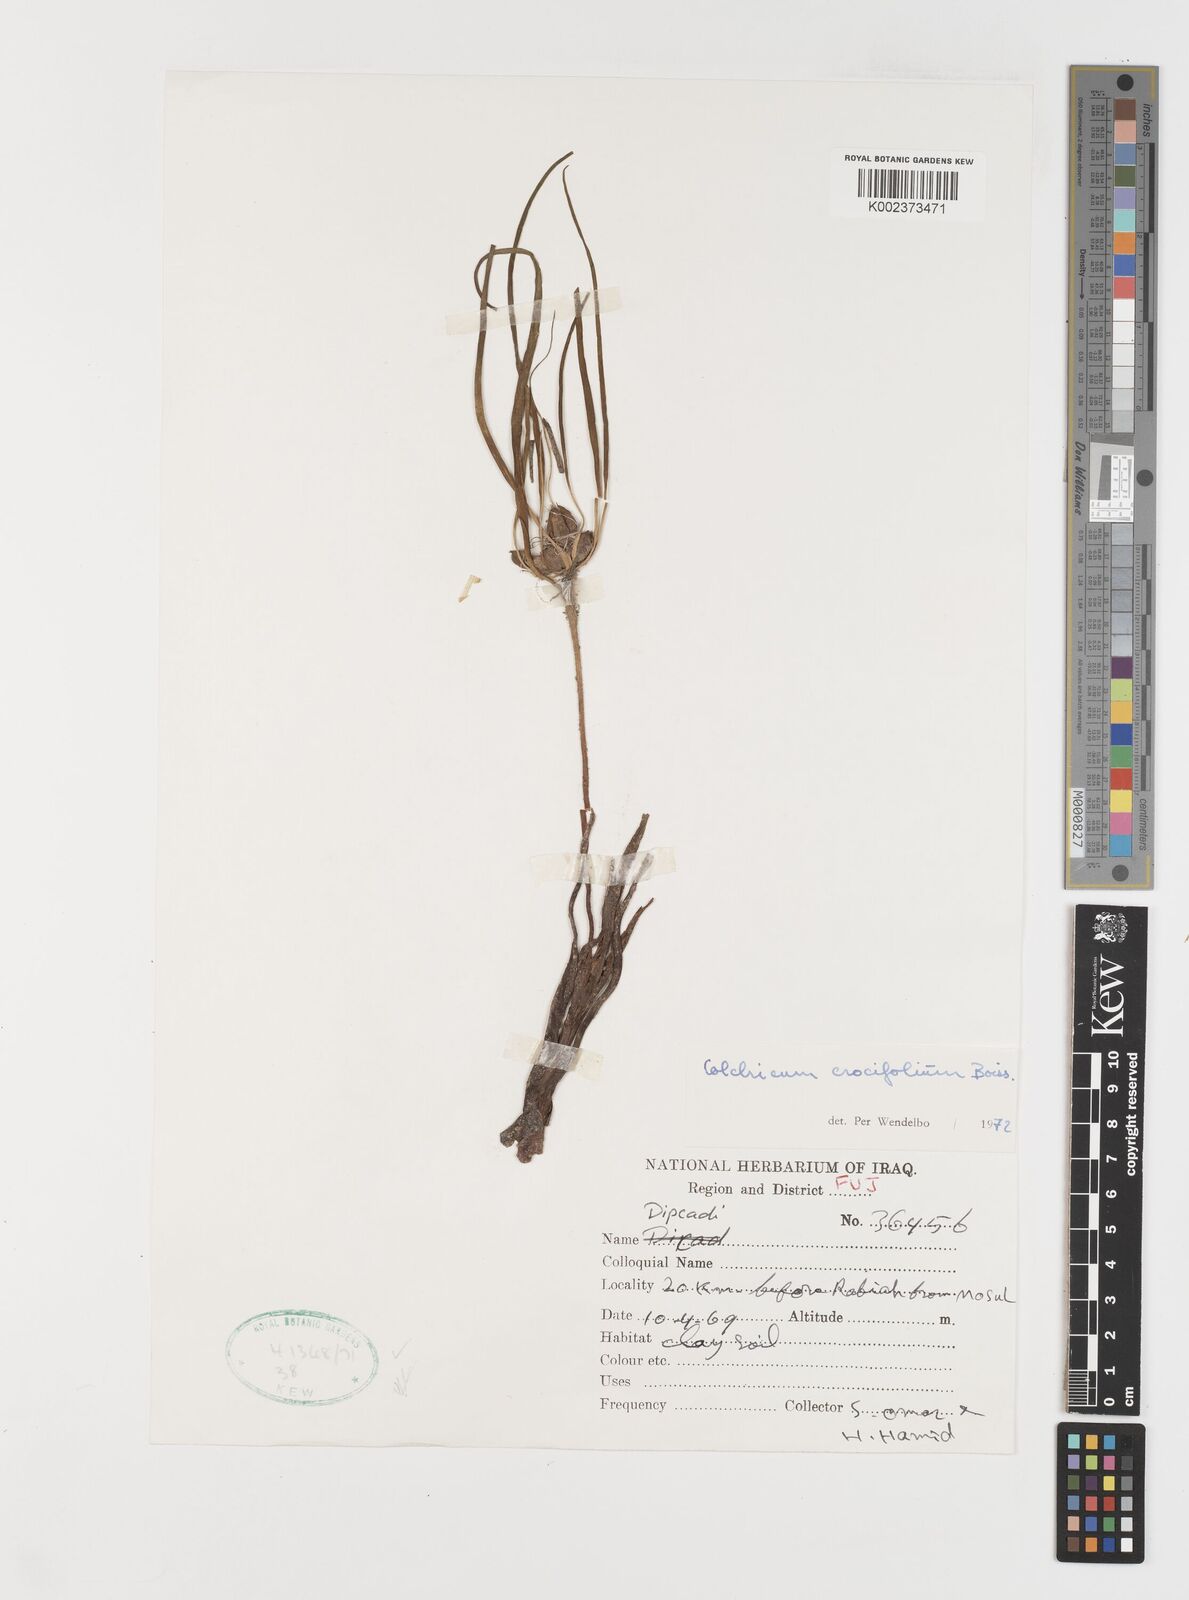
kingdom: Plantae
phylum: Tracheophyta
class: Liliopsida
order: Liliales
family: Colchicaceae
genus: Colchicum
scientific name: Colchicum crocifolium
